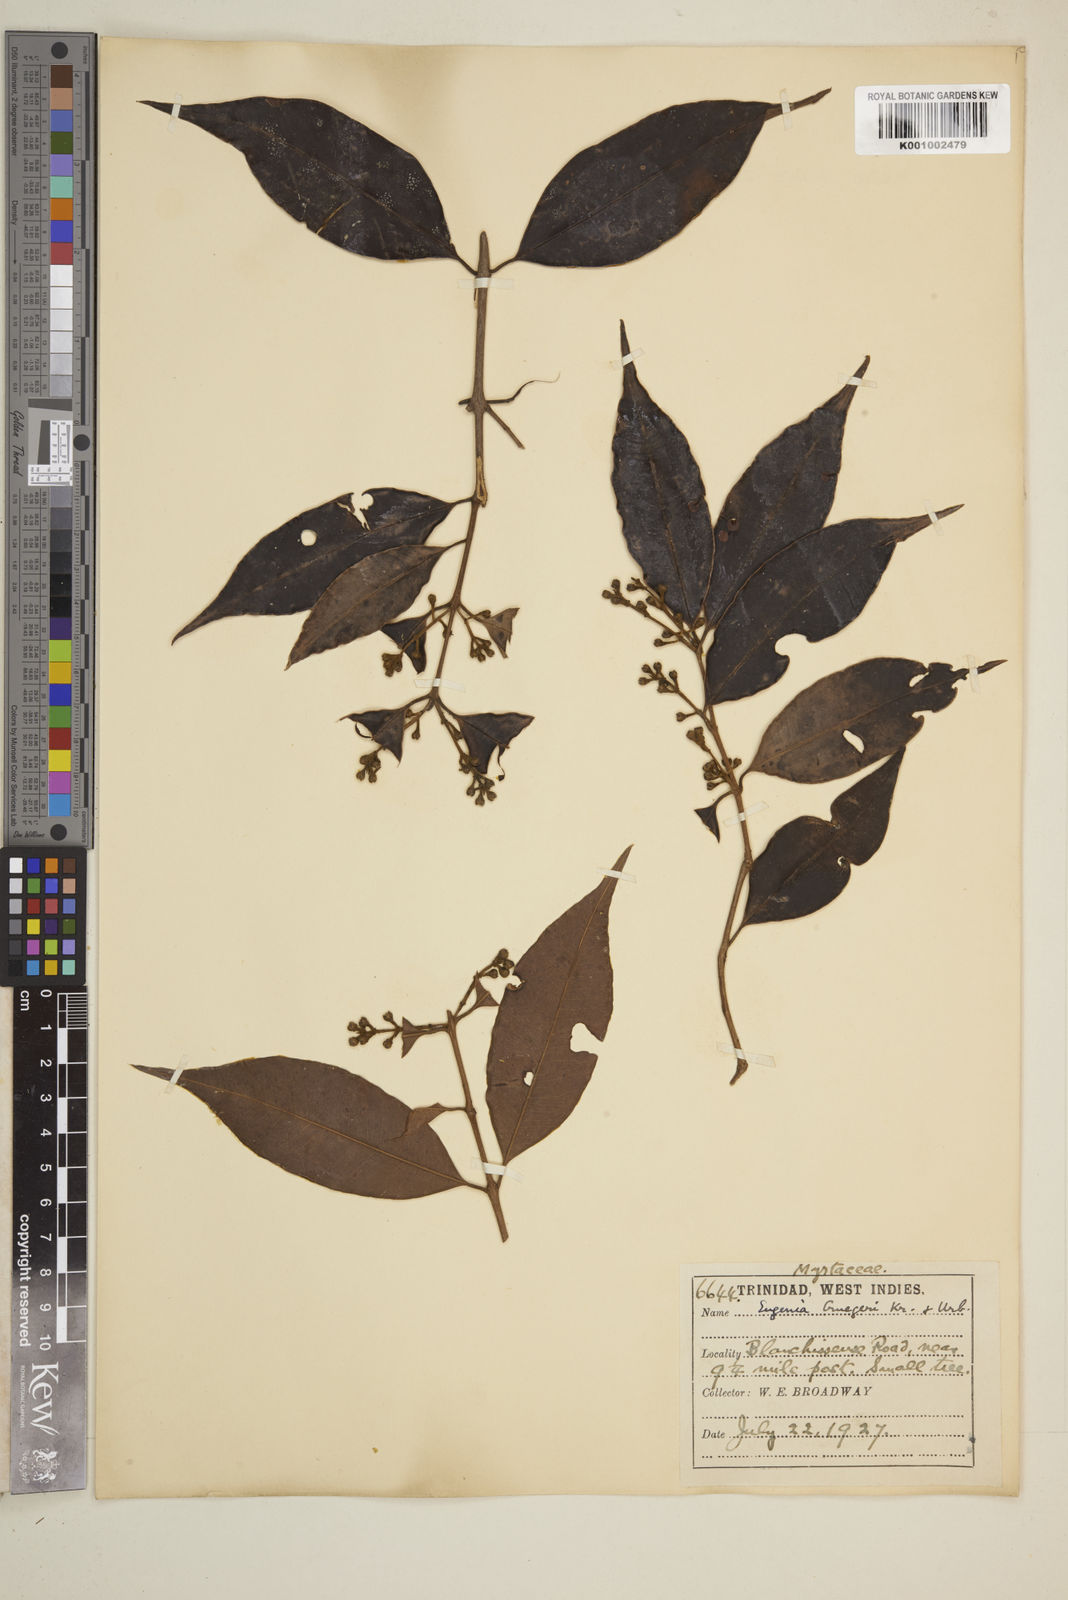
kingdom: Plantae
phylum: Tracheophyta
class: Magnoliopsida
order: Myrtales
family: Myrtaceae
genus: Eugenia
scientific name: Eugenia limbosa
